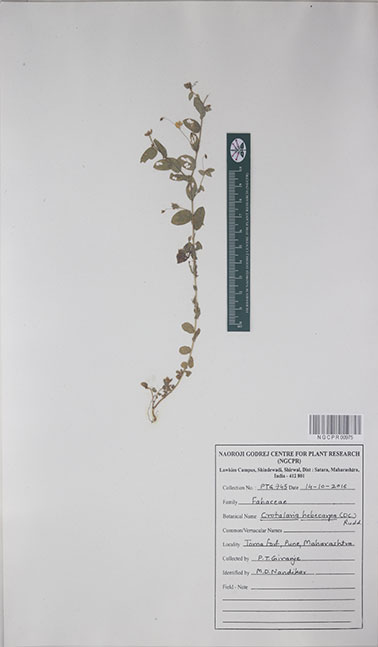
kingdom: Plantae
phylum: Tracheophyta
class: Magnoliopsida
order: Fabales
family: Fabaceae
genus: Crotalaria
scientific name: Crotalaria hebecarpa
